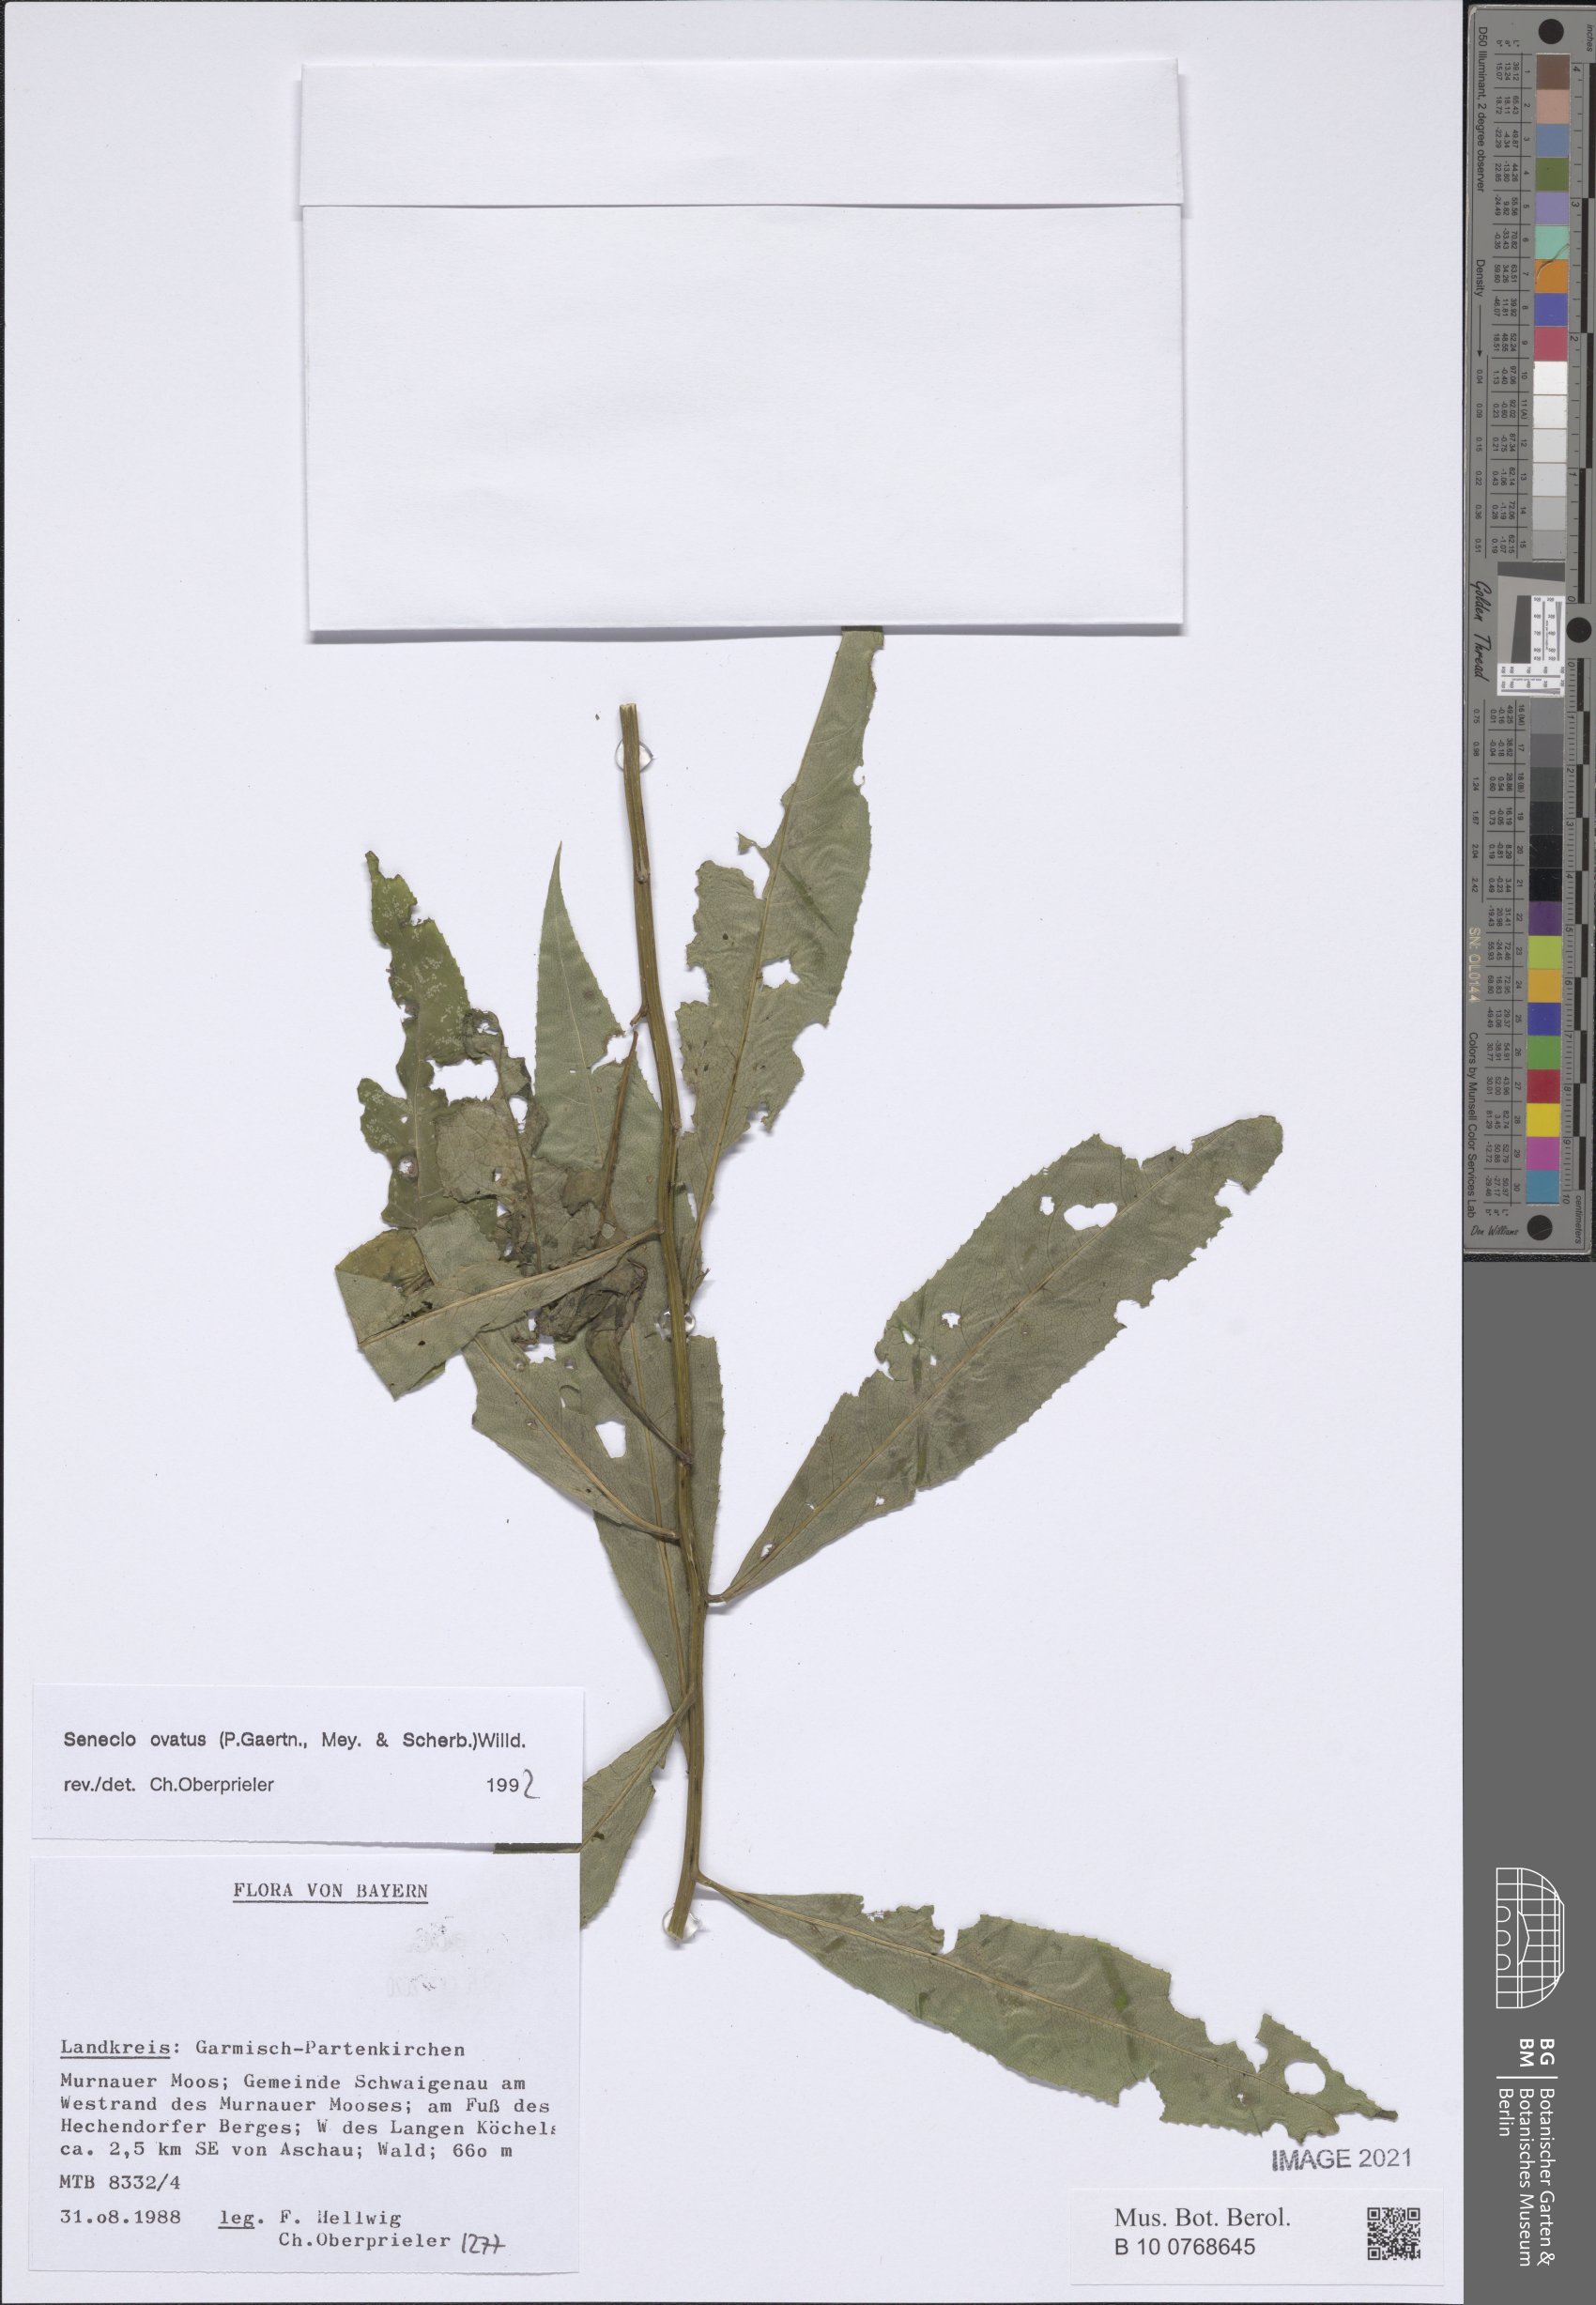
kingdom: Plantae
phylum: Tracheophyta
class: Magnoliopsida
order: Asterales
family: Asteraceae
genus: Senecio
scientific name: Senecio ovatus
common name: Wood ragwort
